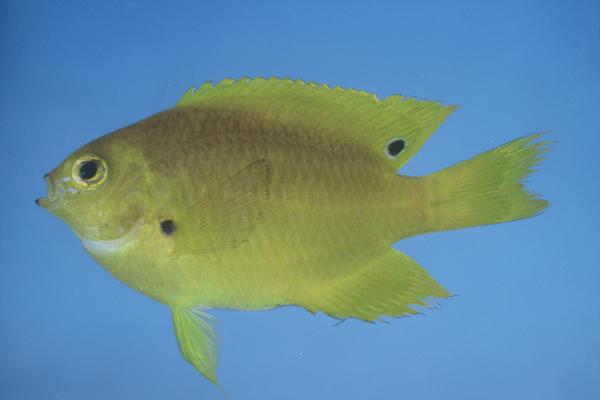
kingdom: Animalia
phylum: Chordata
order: Perciformes
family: Pomacentridae
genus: Pomacentrus
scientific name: Pomacentrus pikei
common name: Blacklip damsel
